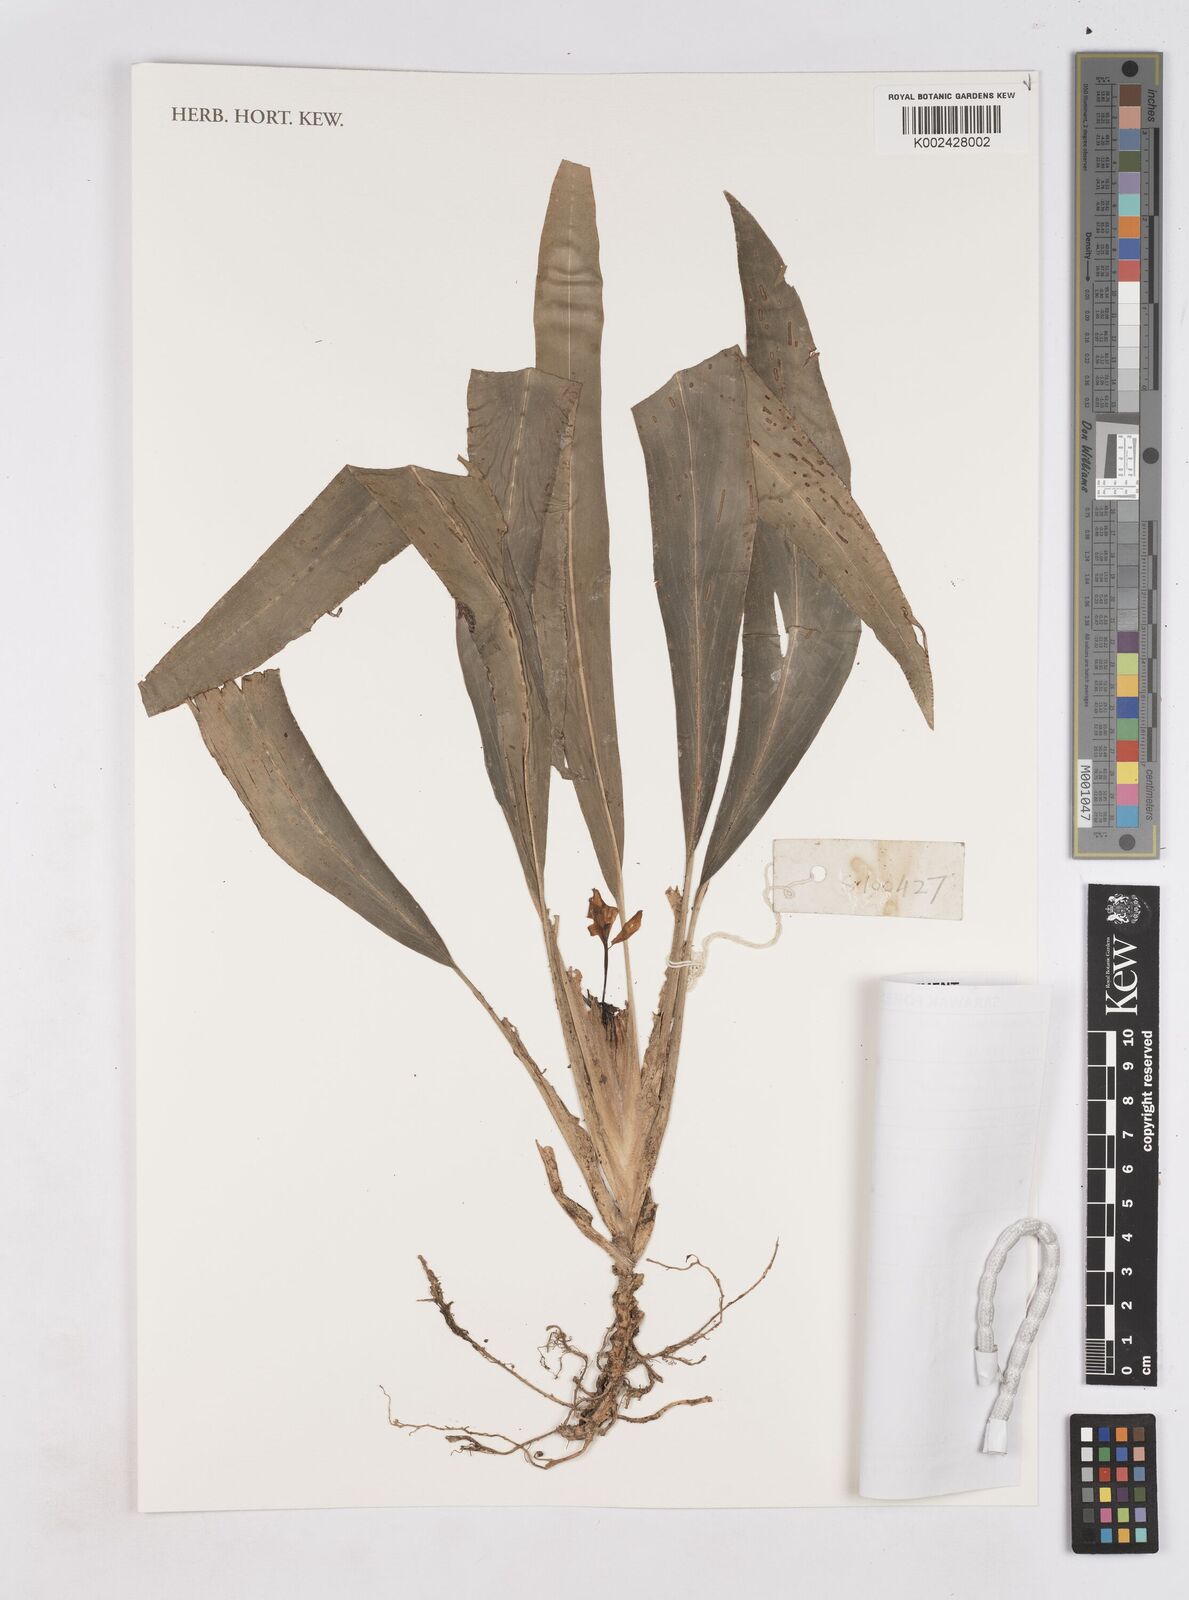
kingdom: Plantae
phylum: Tracheophyta
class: Liliopsida
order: Zingiberales
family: Zingiberaceae
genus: Scaphochlamys
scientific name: Scaphochlamys
